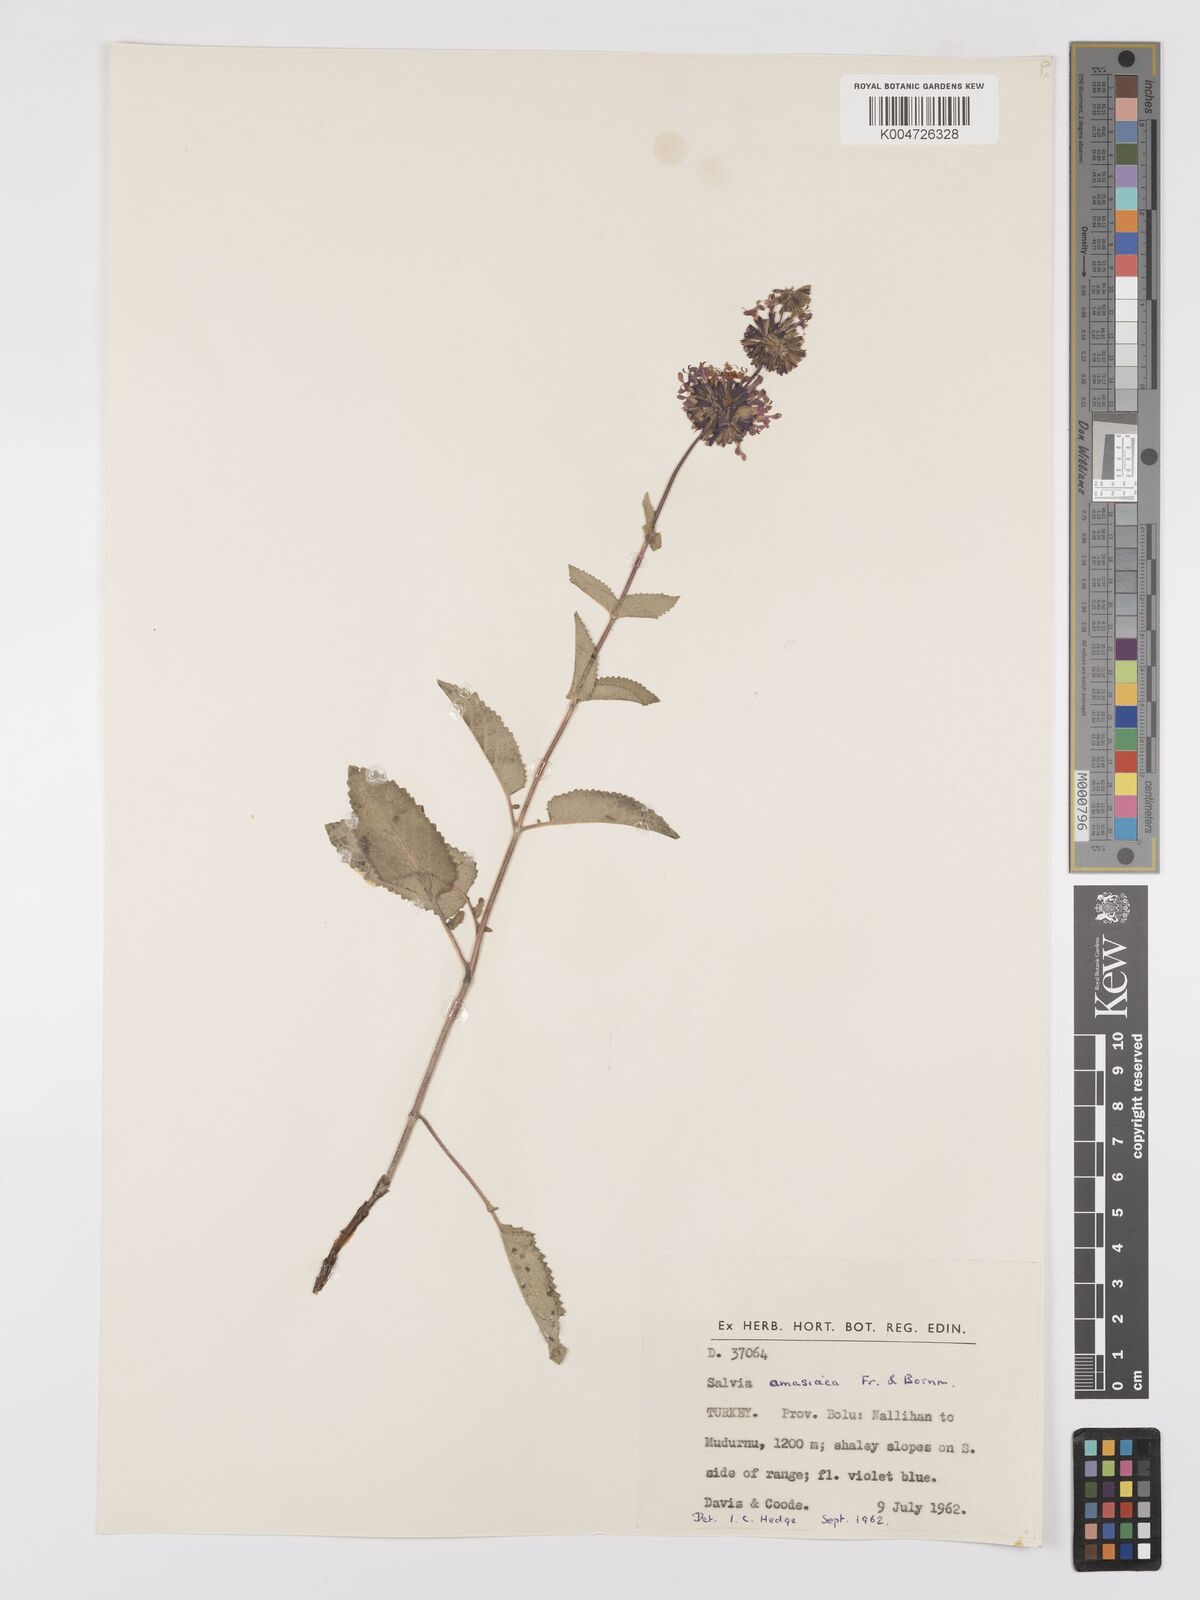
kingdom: Plantae
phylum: Tracheophyta
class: Magnoliopsida
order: Lamiales
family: Lamiaceae
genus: Salvia
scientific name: Salvia verticillata
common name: Whorled clary
